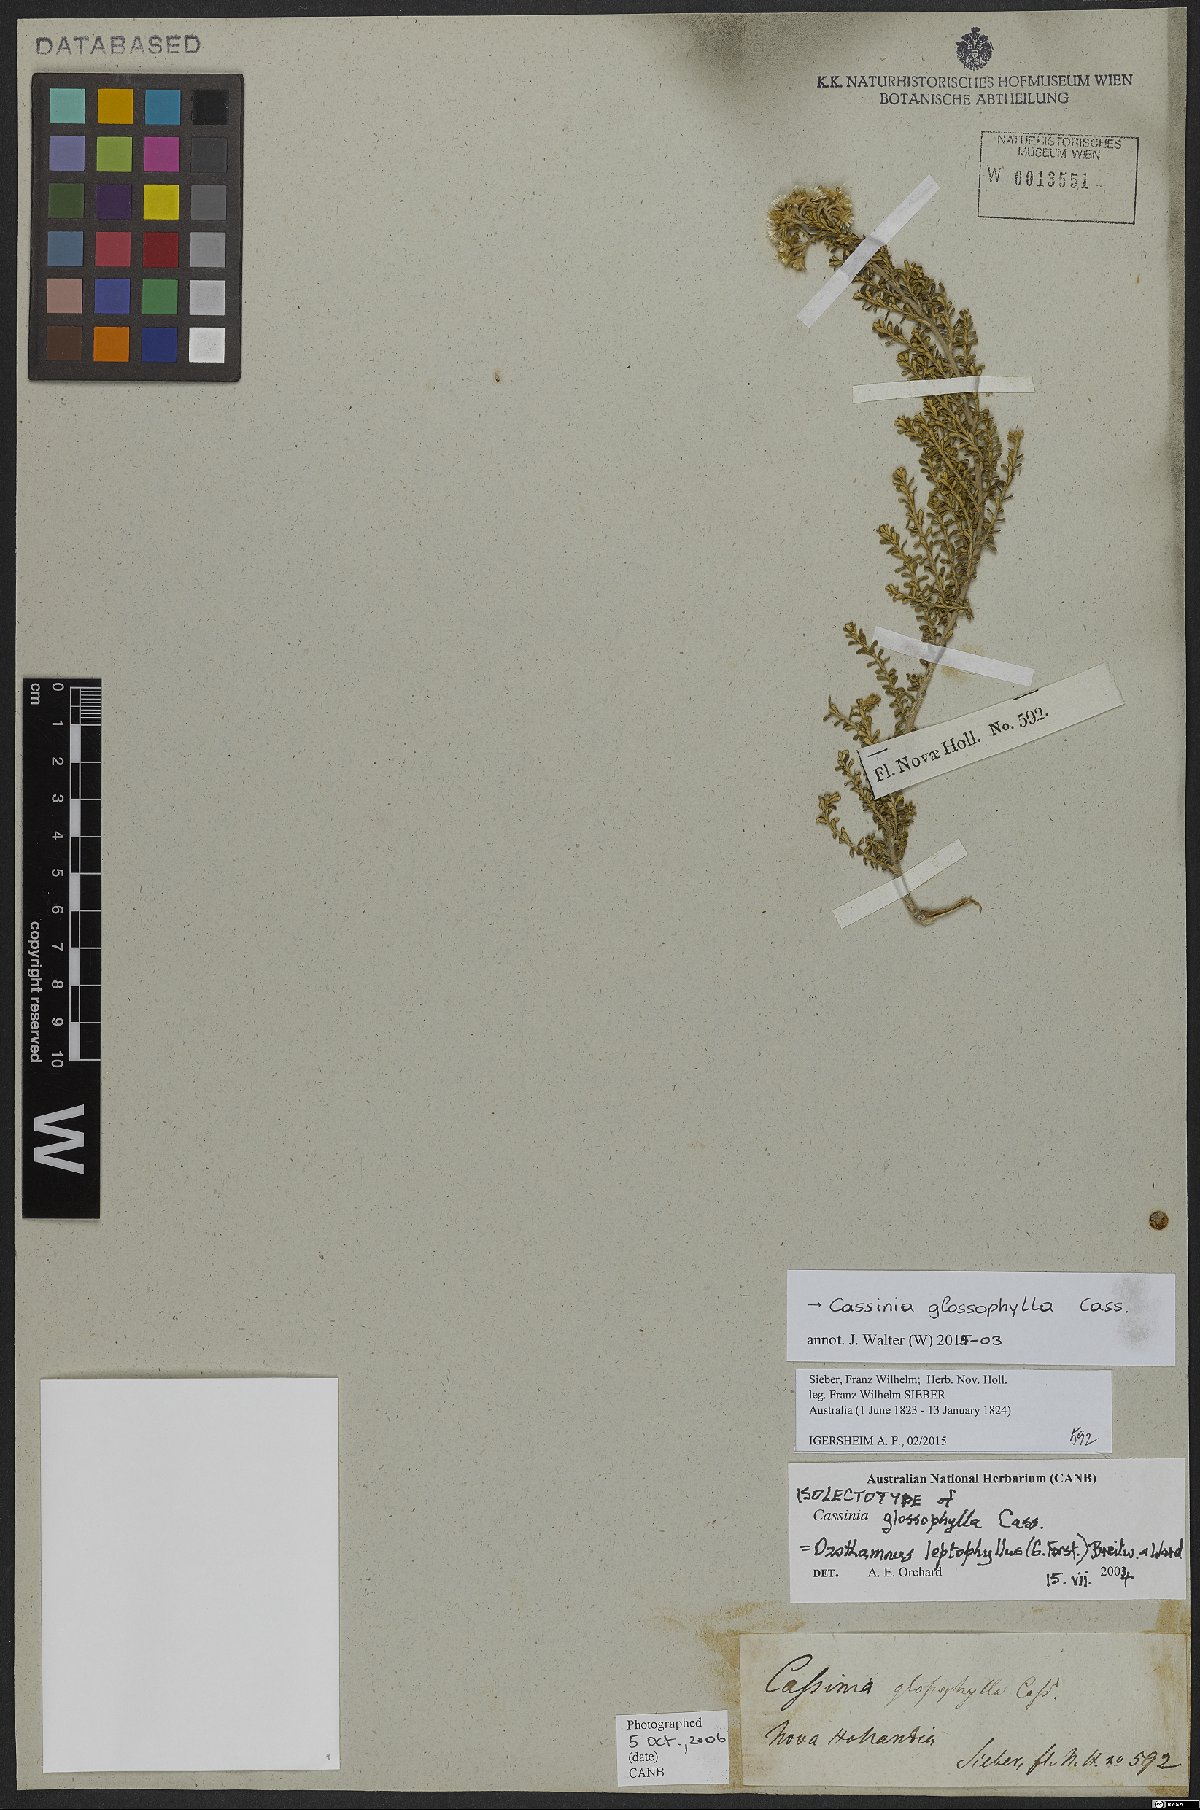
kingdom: Plantae
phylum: Tracheophyta
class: Magnoliopsida
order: Asterales
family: Asteraceae
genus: Ozothamnus
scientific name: Ozothamnus leptophyllus
